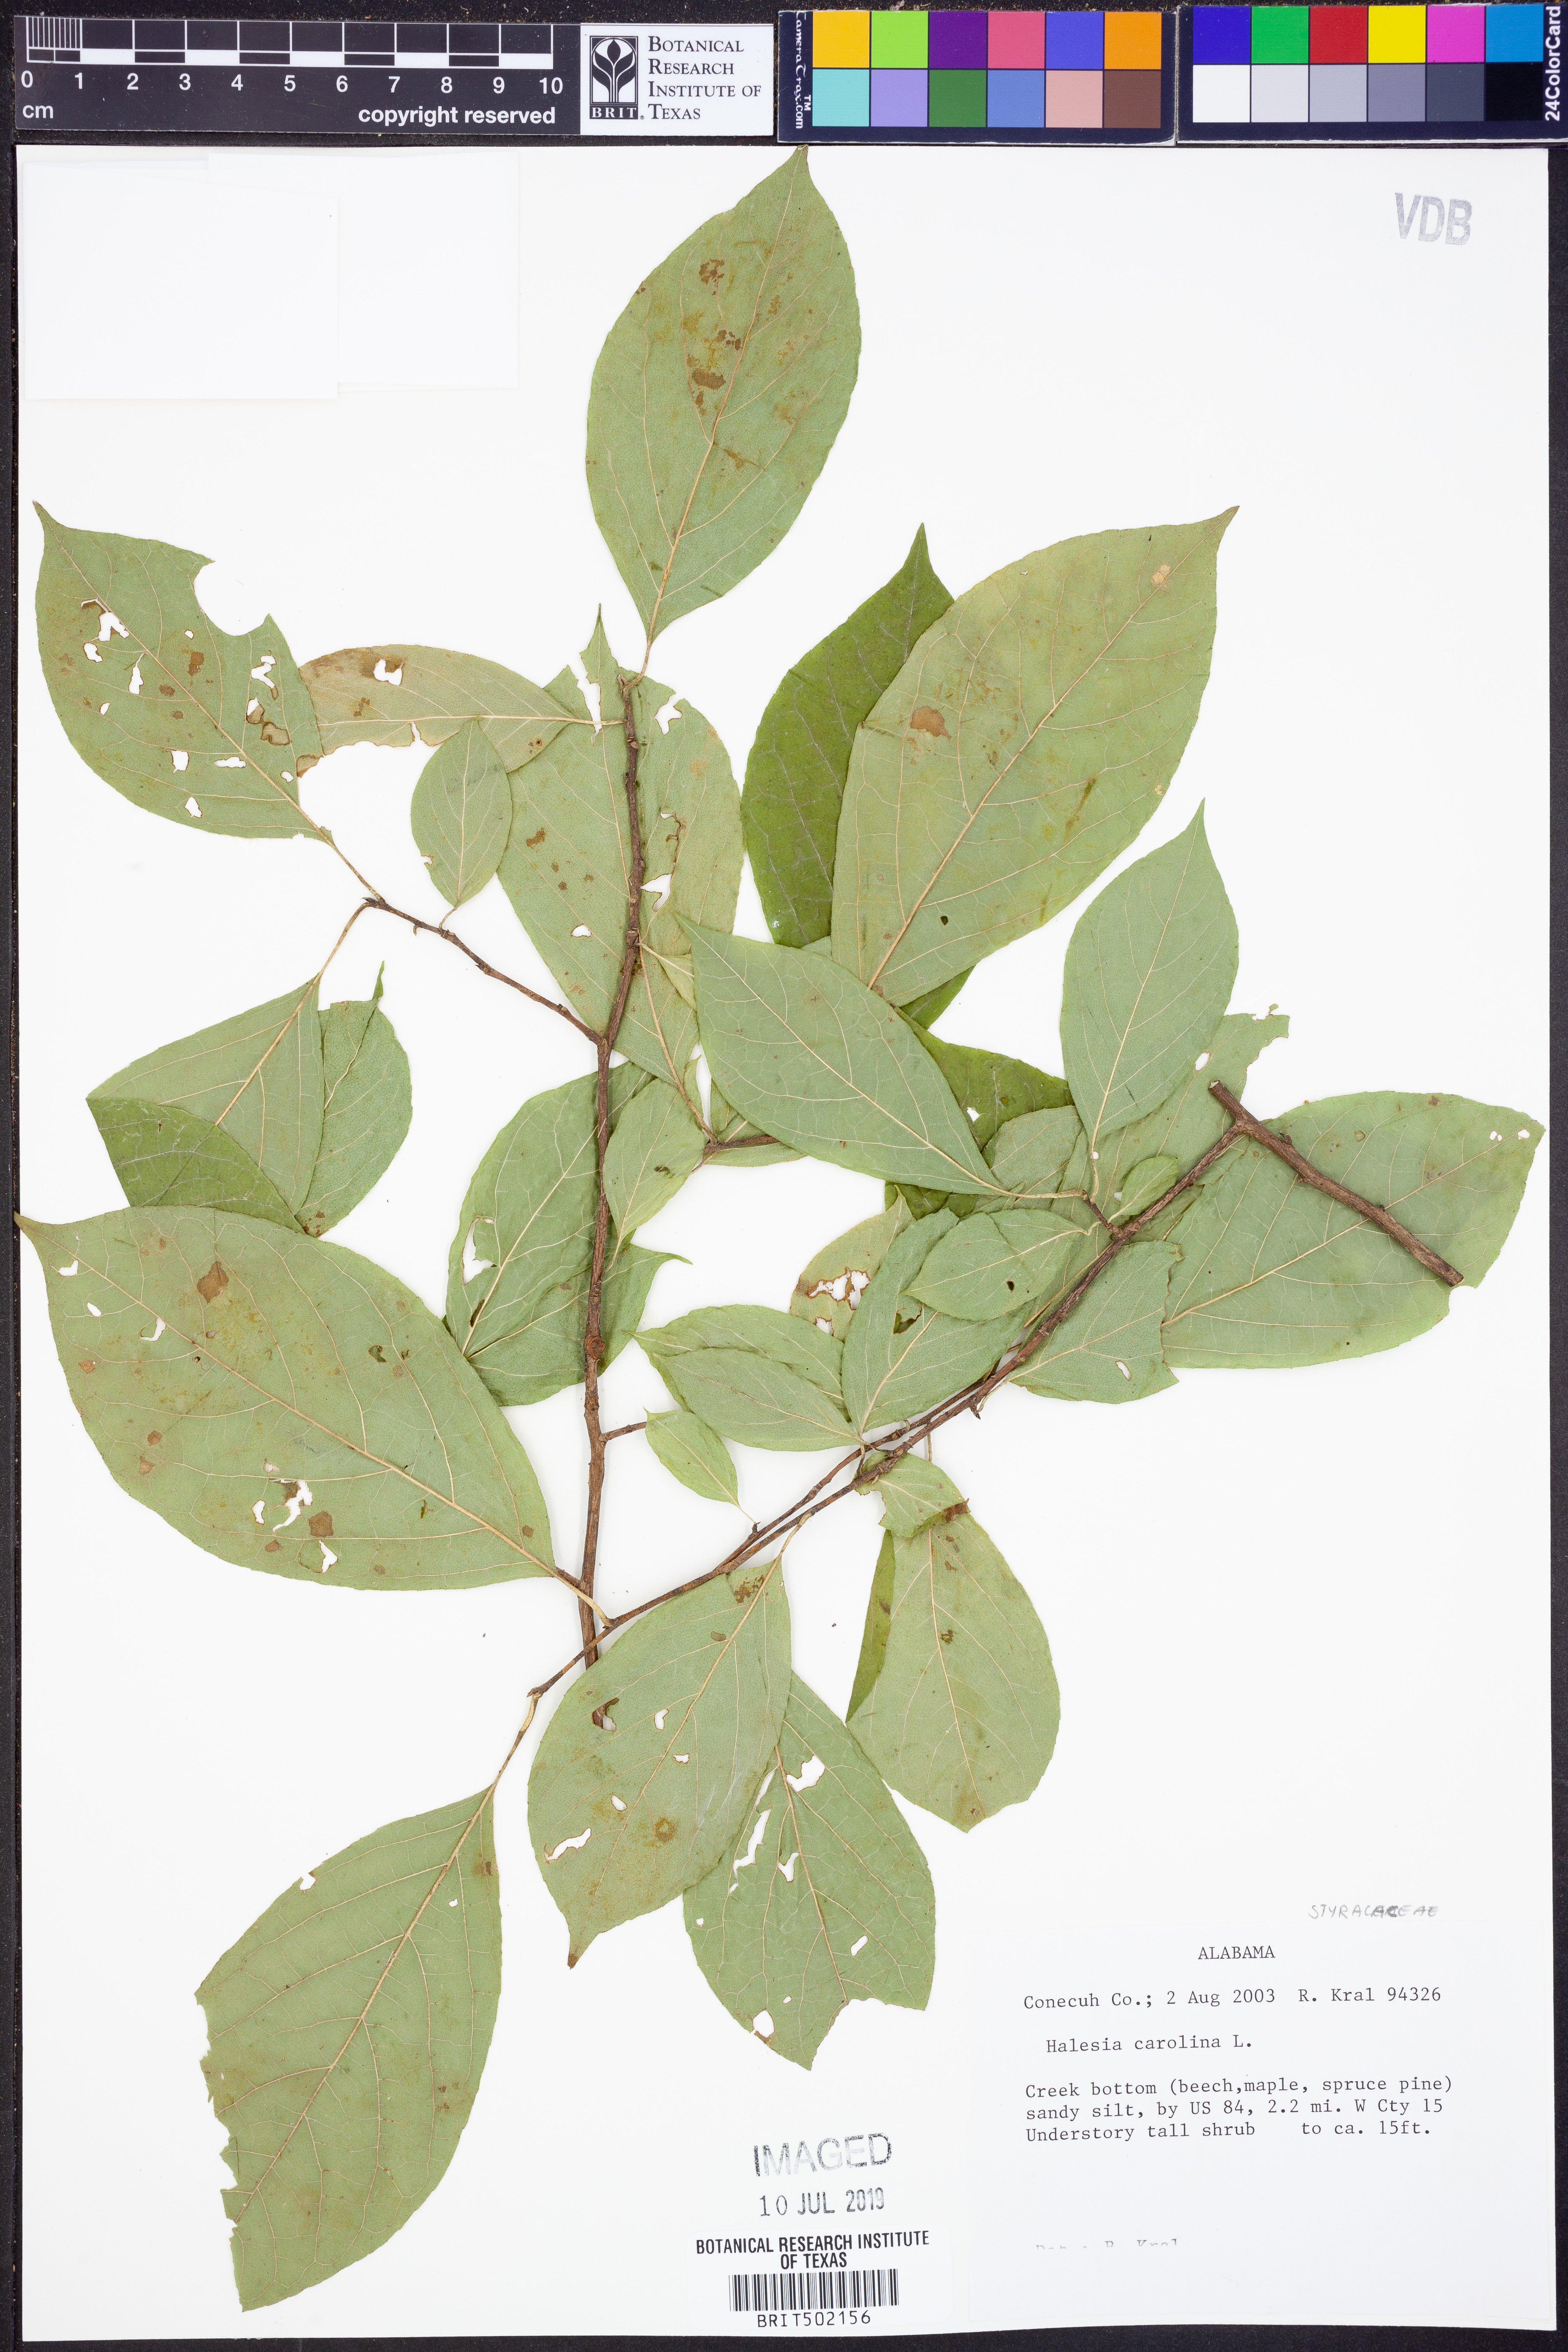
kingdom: Plantae
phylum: Tracheophyta
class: Magnoliopsida
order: Ericales
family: Styracaceae
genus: Halesia
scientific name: Halesia carolina
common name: Carolina silverbell
